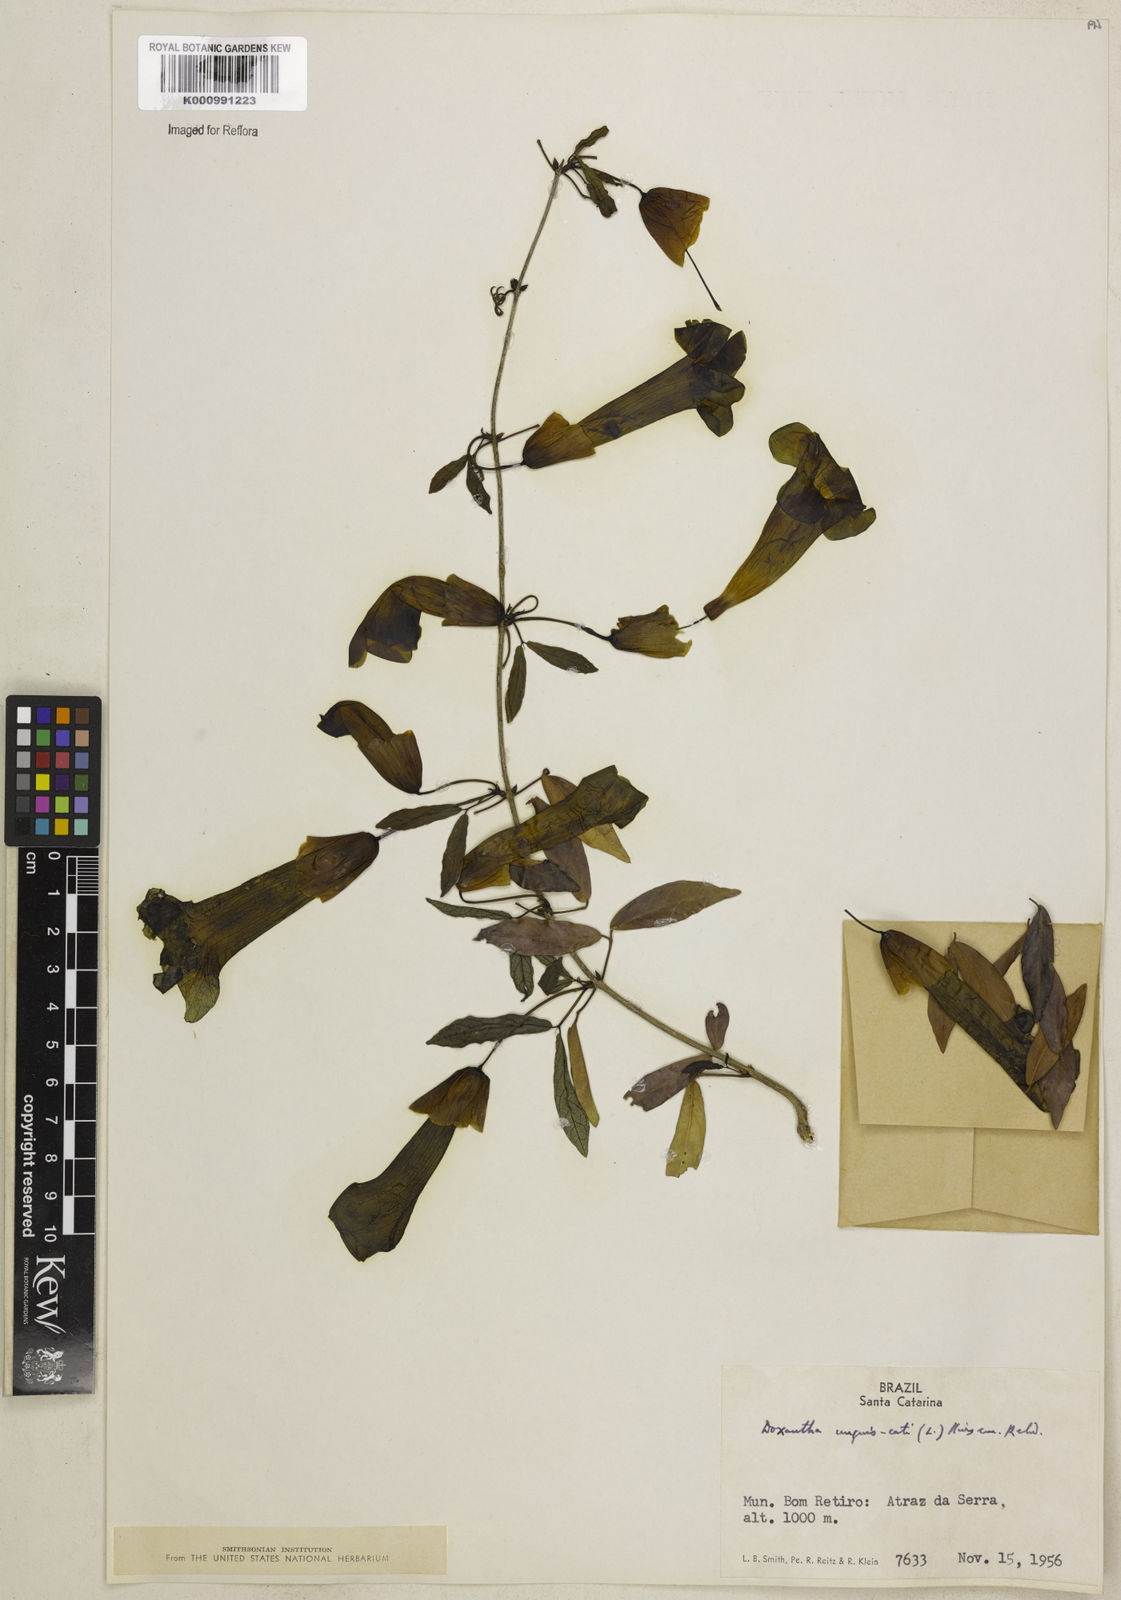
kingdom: Plantae
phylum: Tracheophyta
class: Magnoliopsida
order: Lamiales
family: Bignoniaceae
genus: Dolichandra
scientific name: Dolichandra unguis-cati
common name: Catclaw vine
